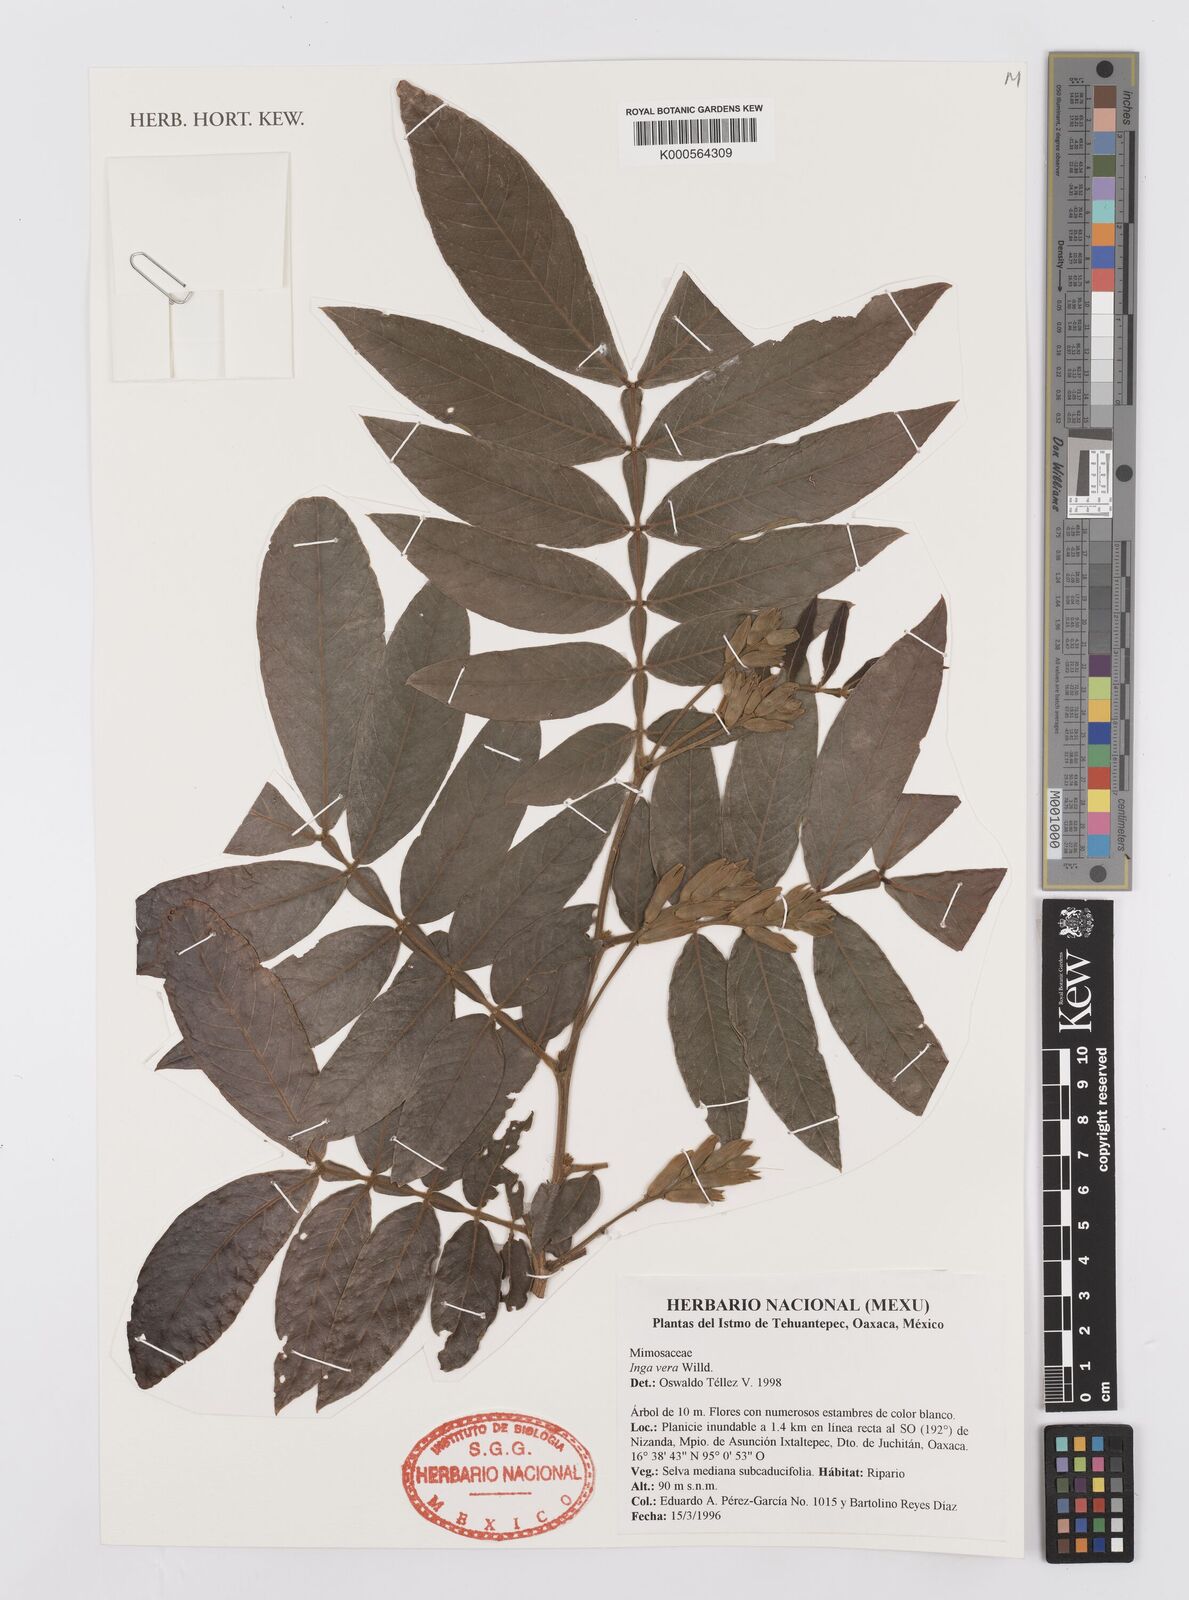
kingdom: Plantae
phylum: Tracheophyta
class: Magnoliopsida
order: Fabales
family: Fabaceae
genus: Inga
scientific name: Inga vera
